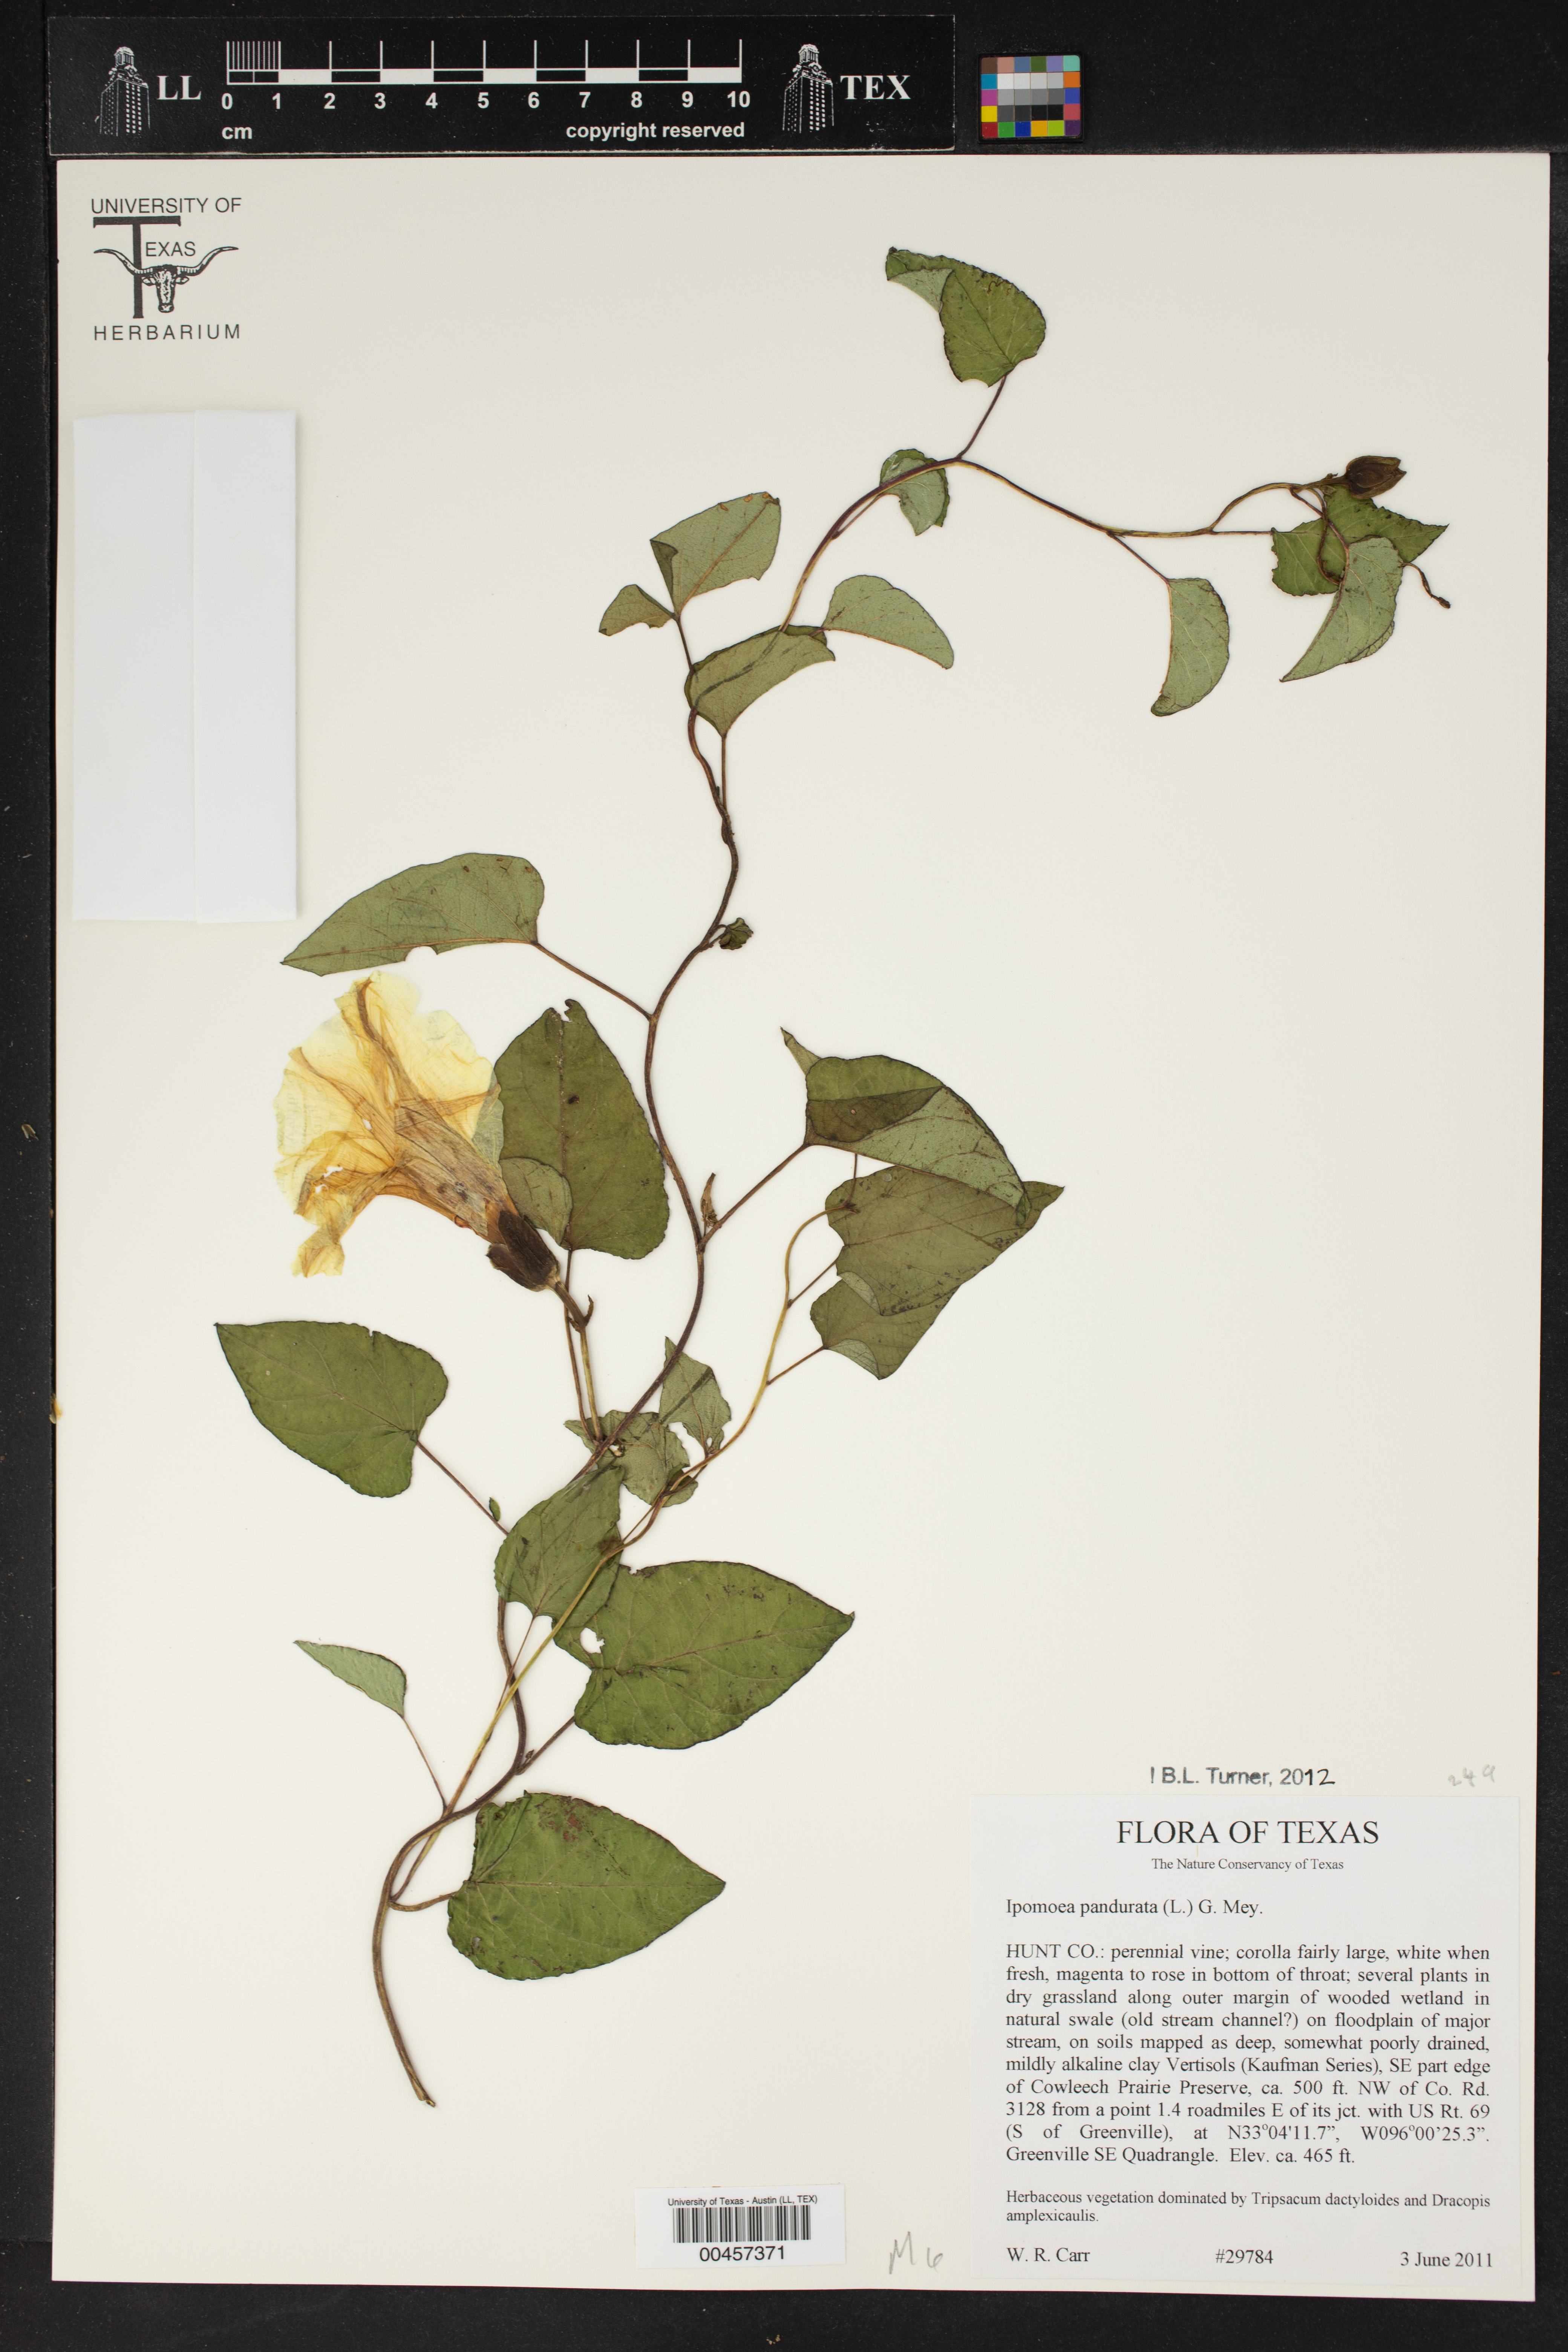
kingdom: Plantae
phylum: Tracheophyta
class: Magnoliopsida
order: Solanales
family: Convolvulaceae
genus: Ipomoea
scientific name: Ipomoea pandurata
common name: Man-of-the-earth
